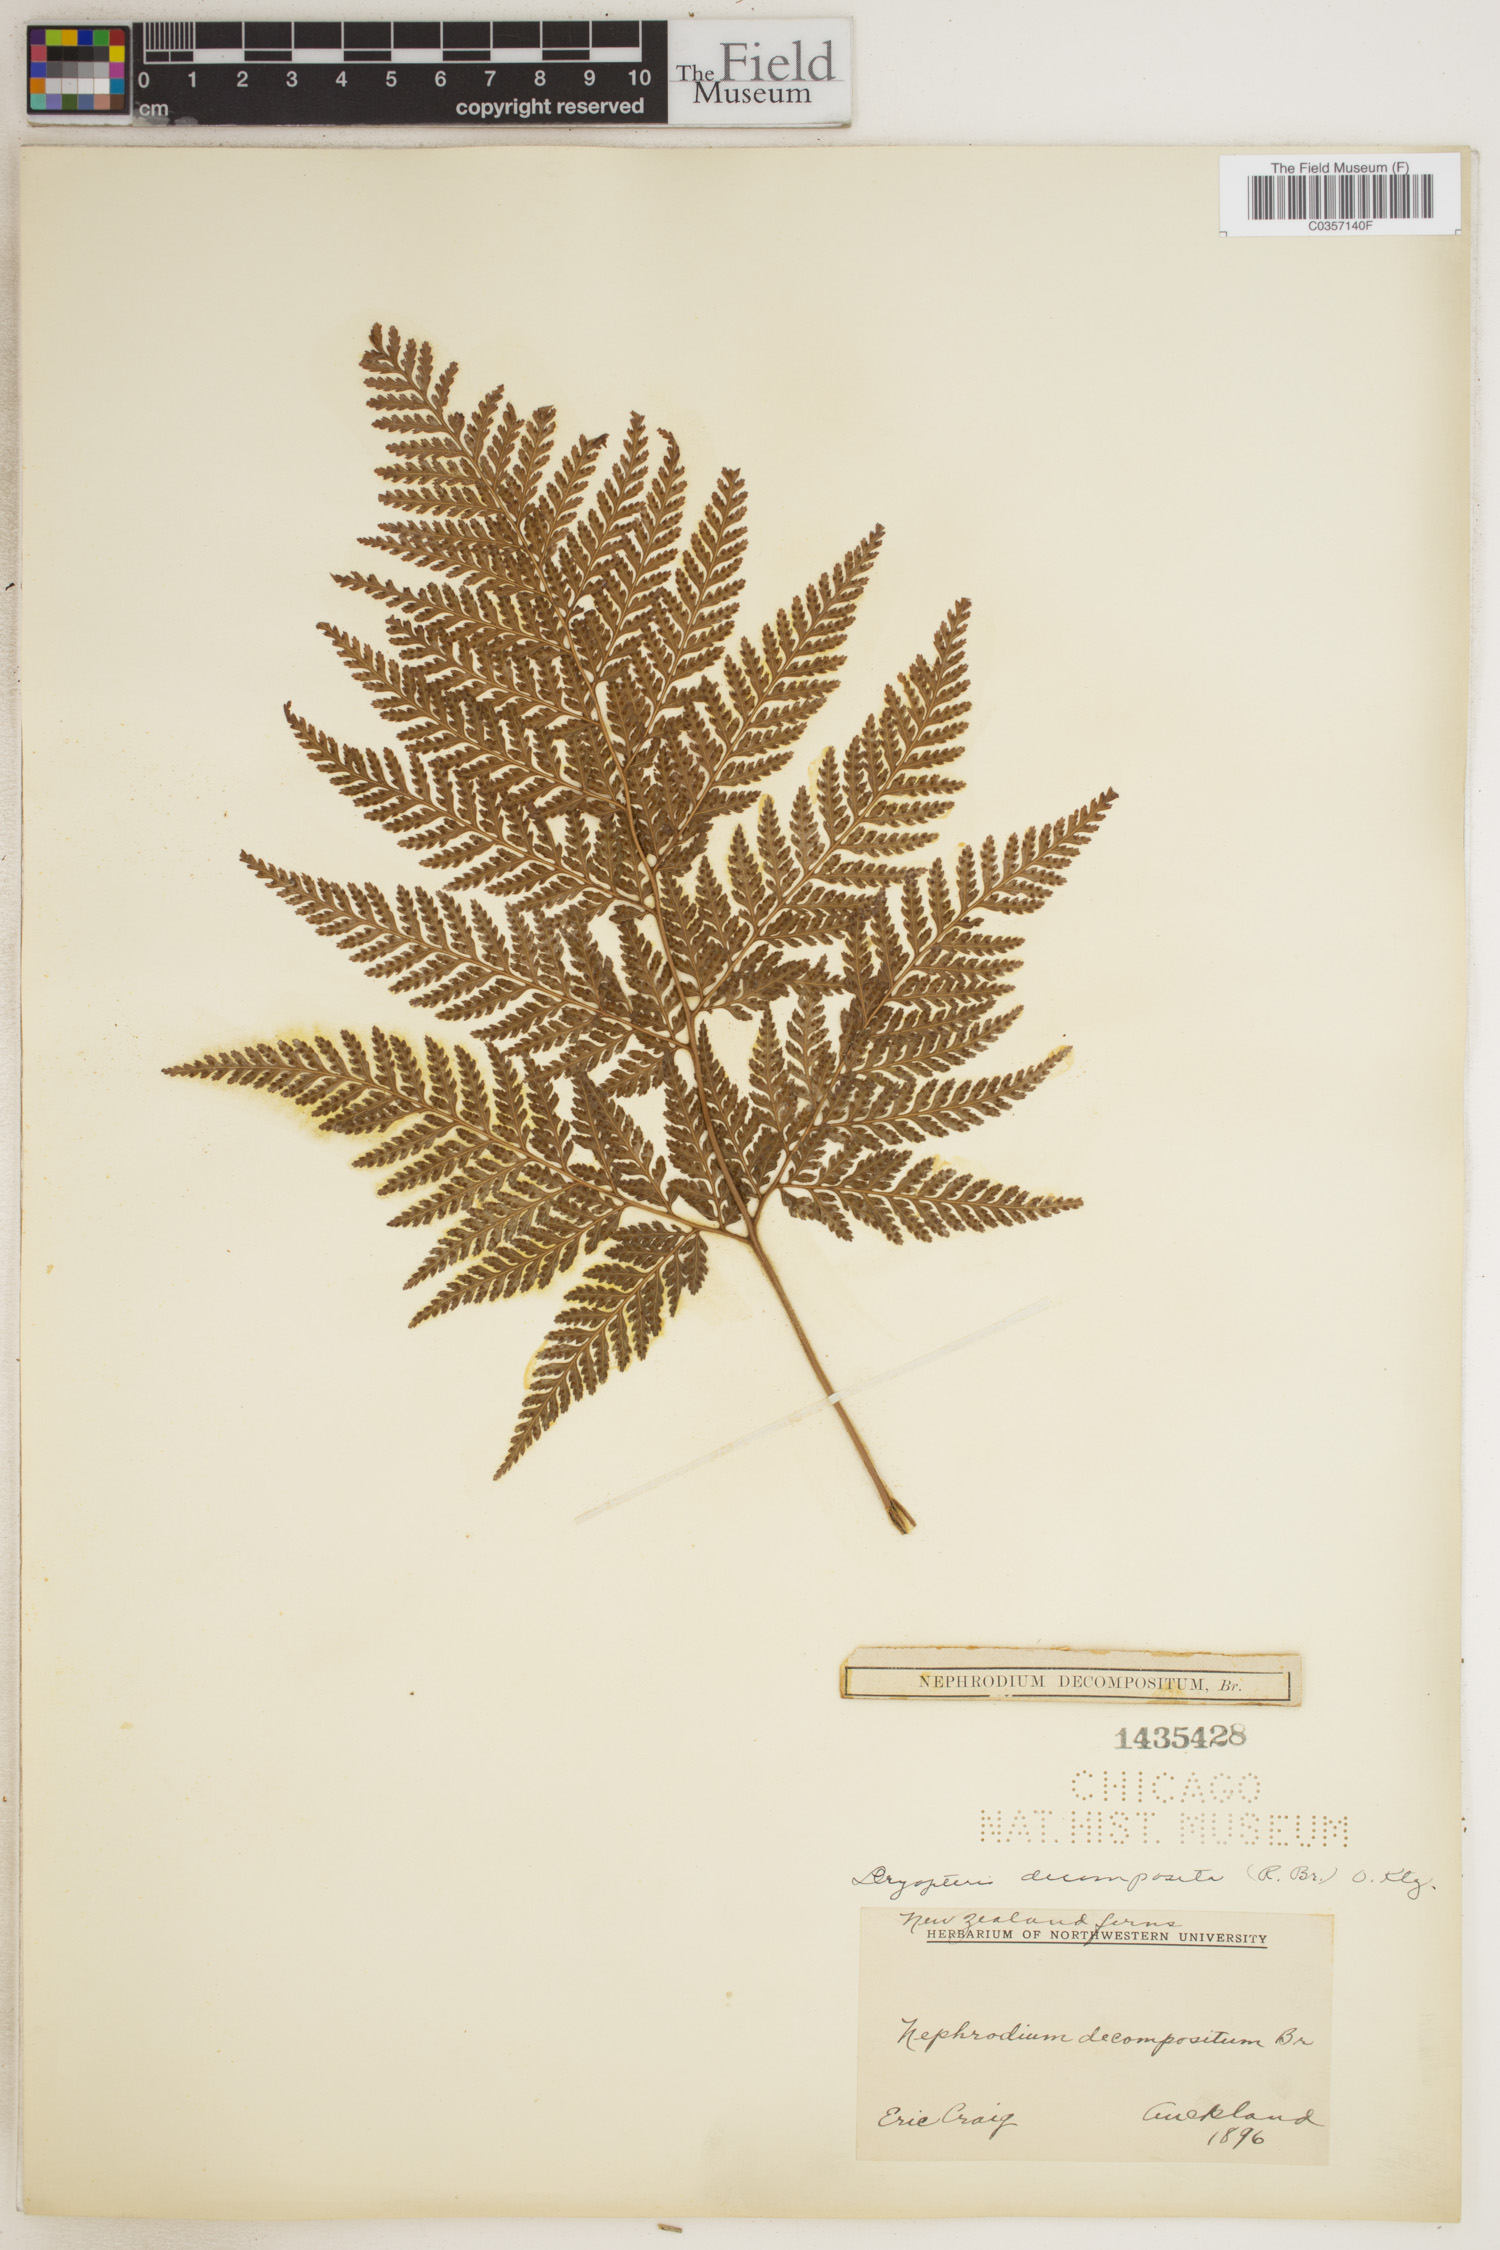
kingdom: Plantae
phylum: Tracheophyta
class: Polypodiopsida
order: Polypodiales
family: Dryopteridaceae
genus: Lastreopsis
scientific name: Lastreopsis decomposita
